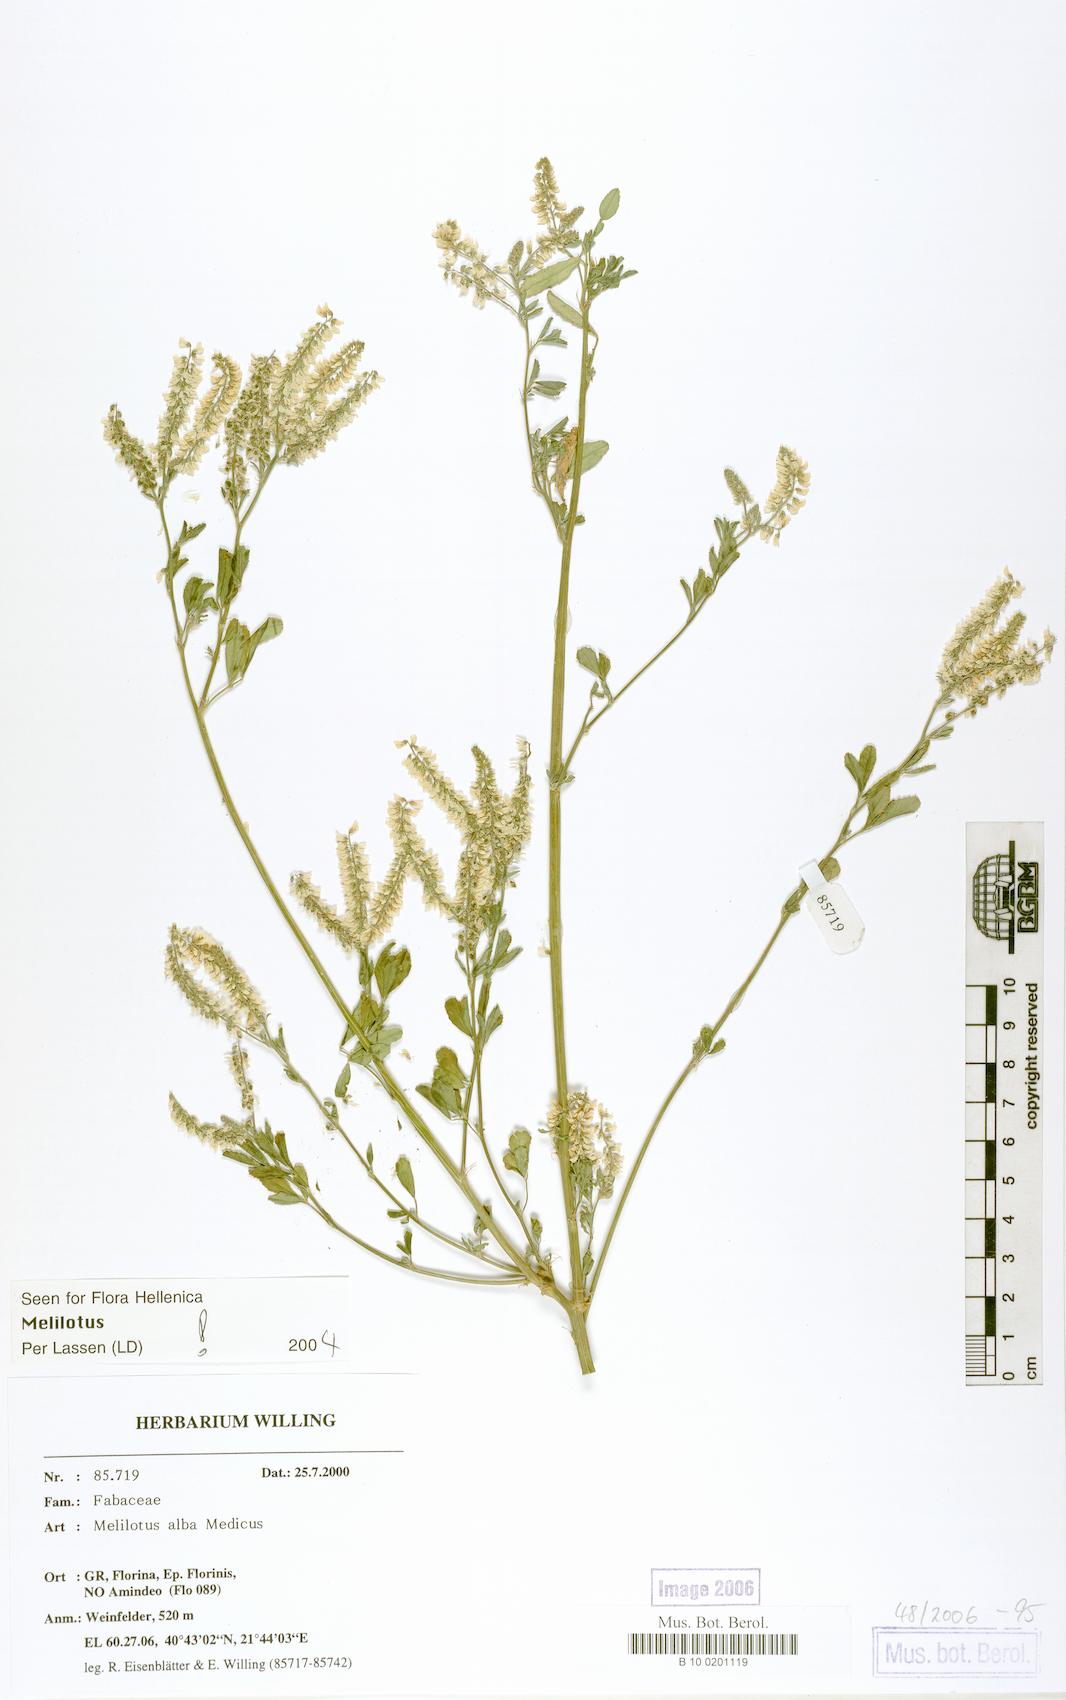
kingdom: Plantae
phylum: Tracheophyta
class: Magnoliopsida
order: Fabales
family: Fabaceae
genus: Melilotus
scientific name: Melilotus albus
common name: White melilot
